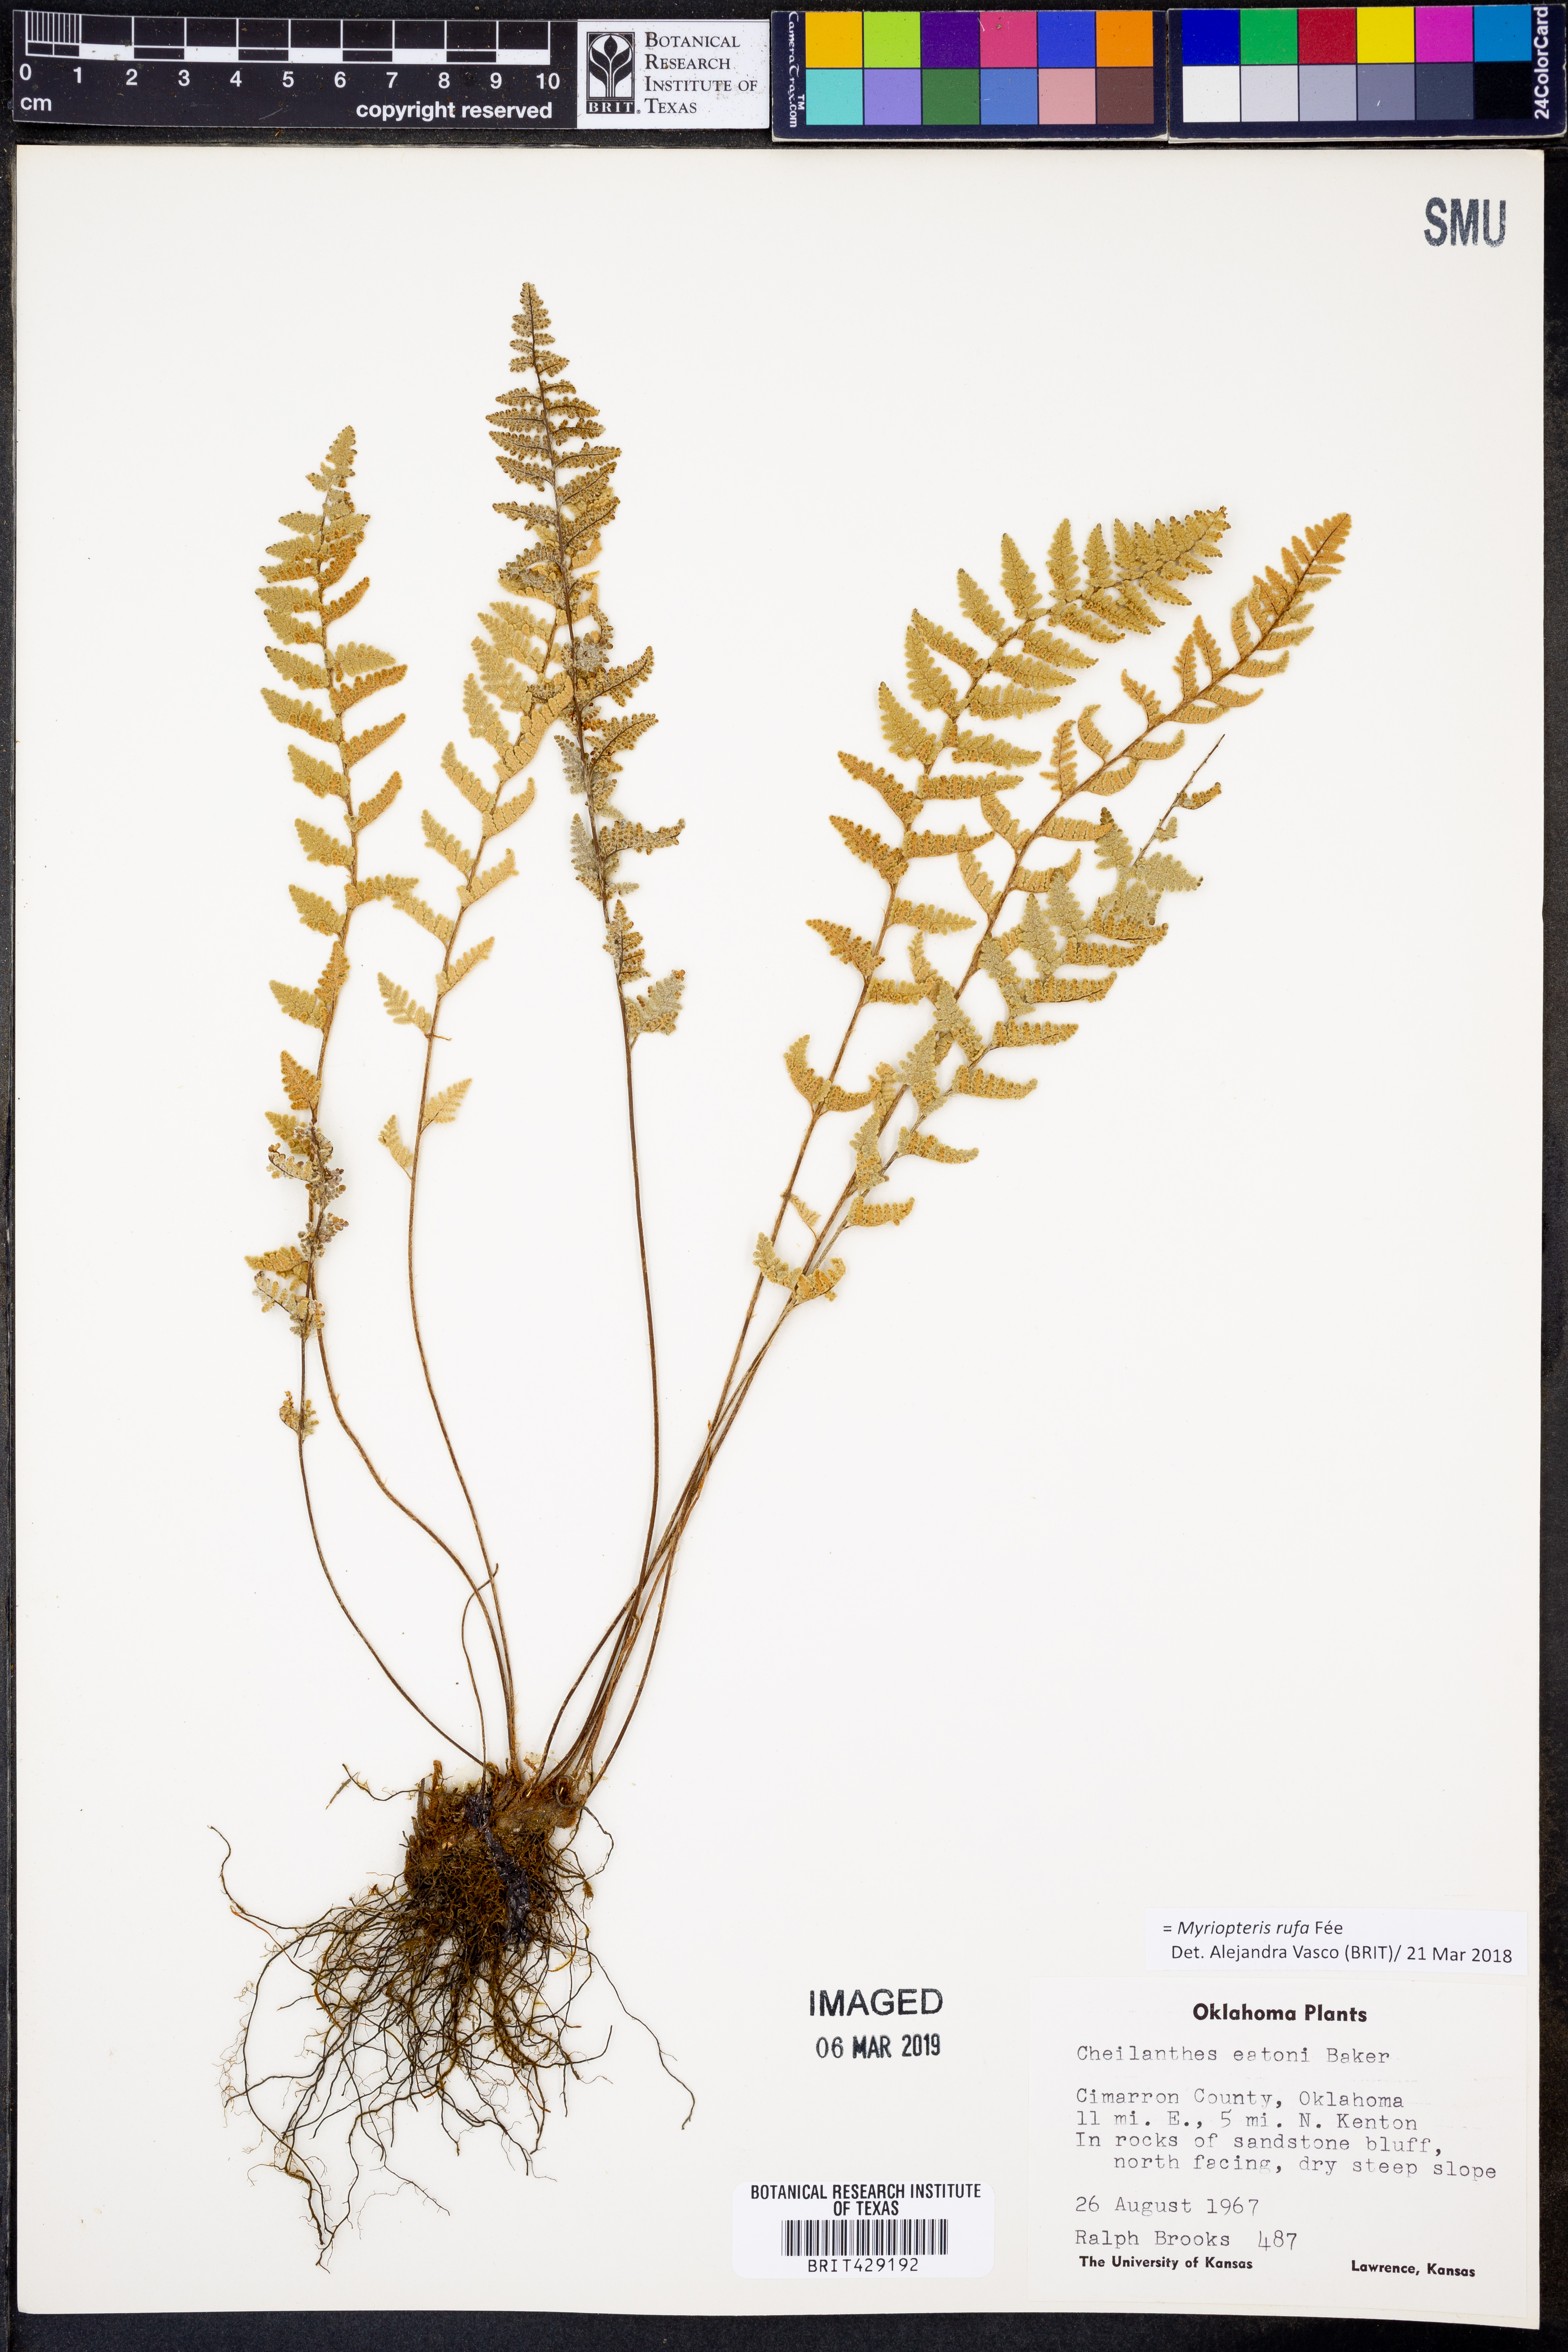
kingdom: Plantae
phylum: Tracheophyta
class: Polypodiopsida
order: Polypodiales
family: Pteridaceae
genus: Myriopteris
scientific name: Myriopteris rufa
